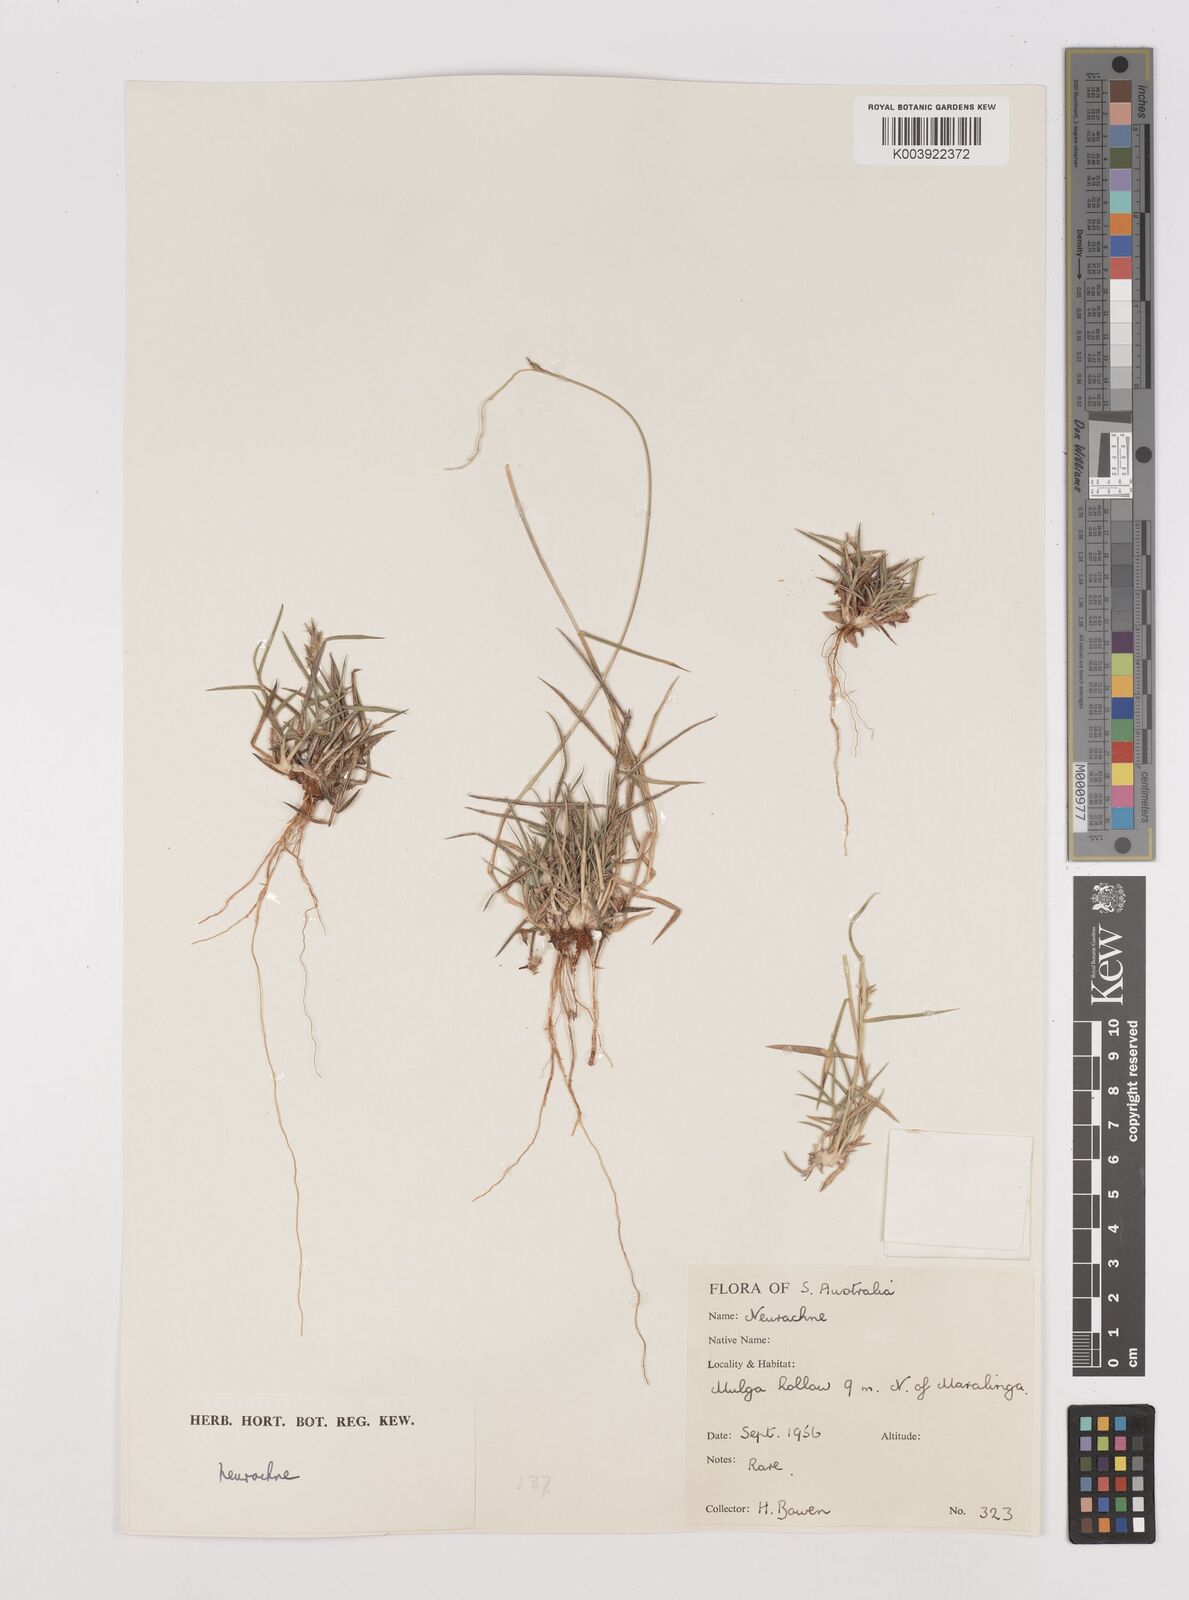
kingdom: Plantae
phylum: Tracheophyta
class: Liliopsida
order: Poales
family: Poaceae
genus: Thyridolepis
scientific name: Thyridolepis mitchelliana
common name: Rock tassel grass
